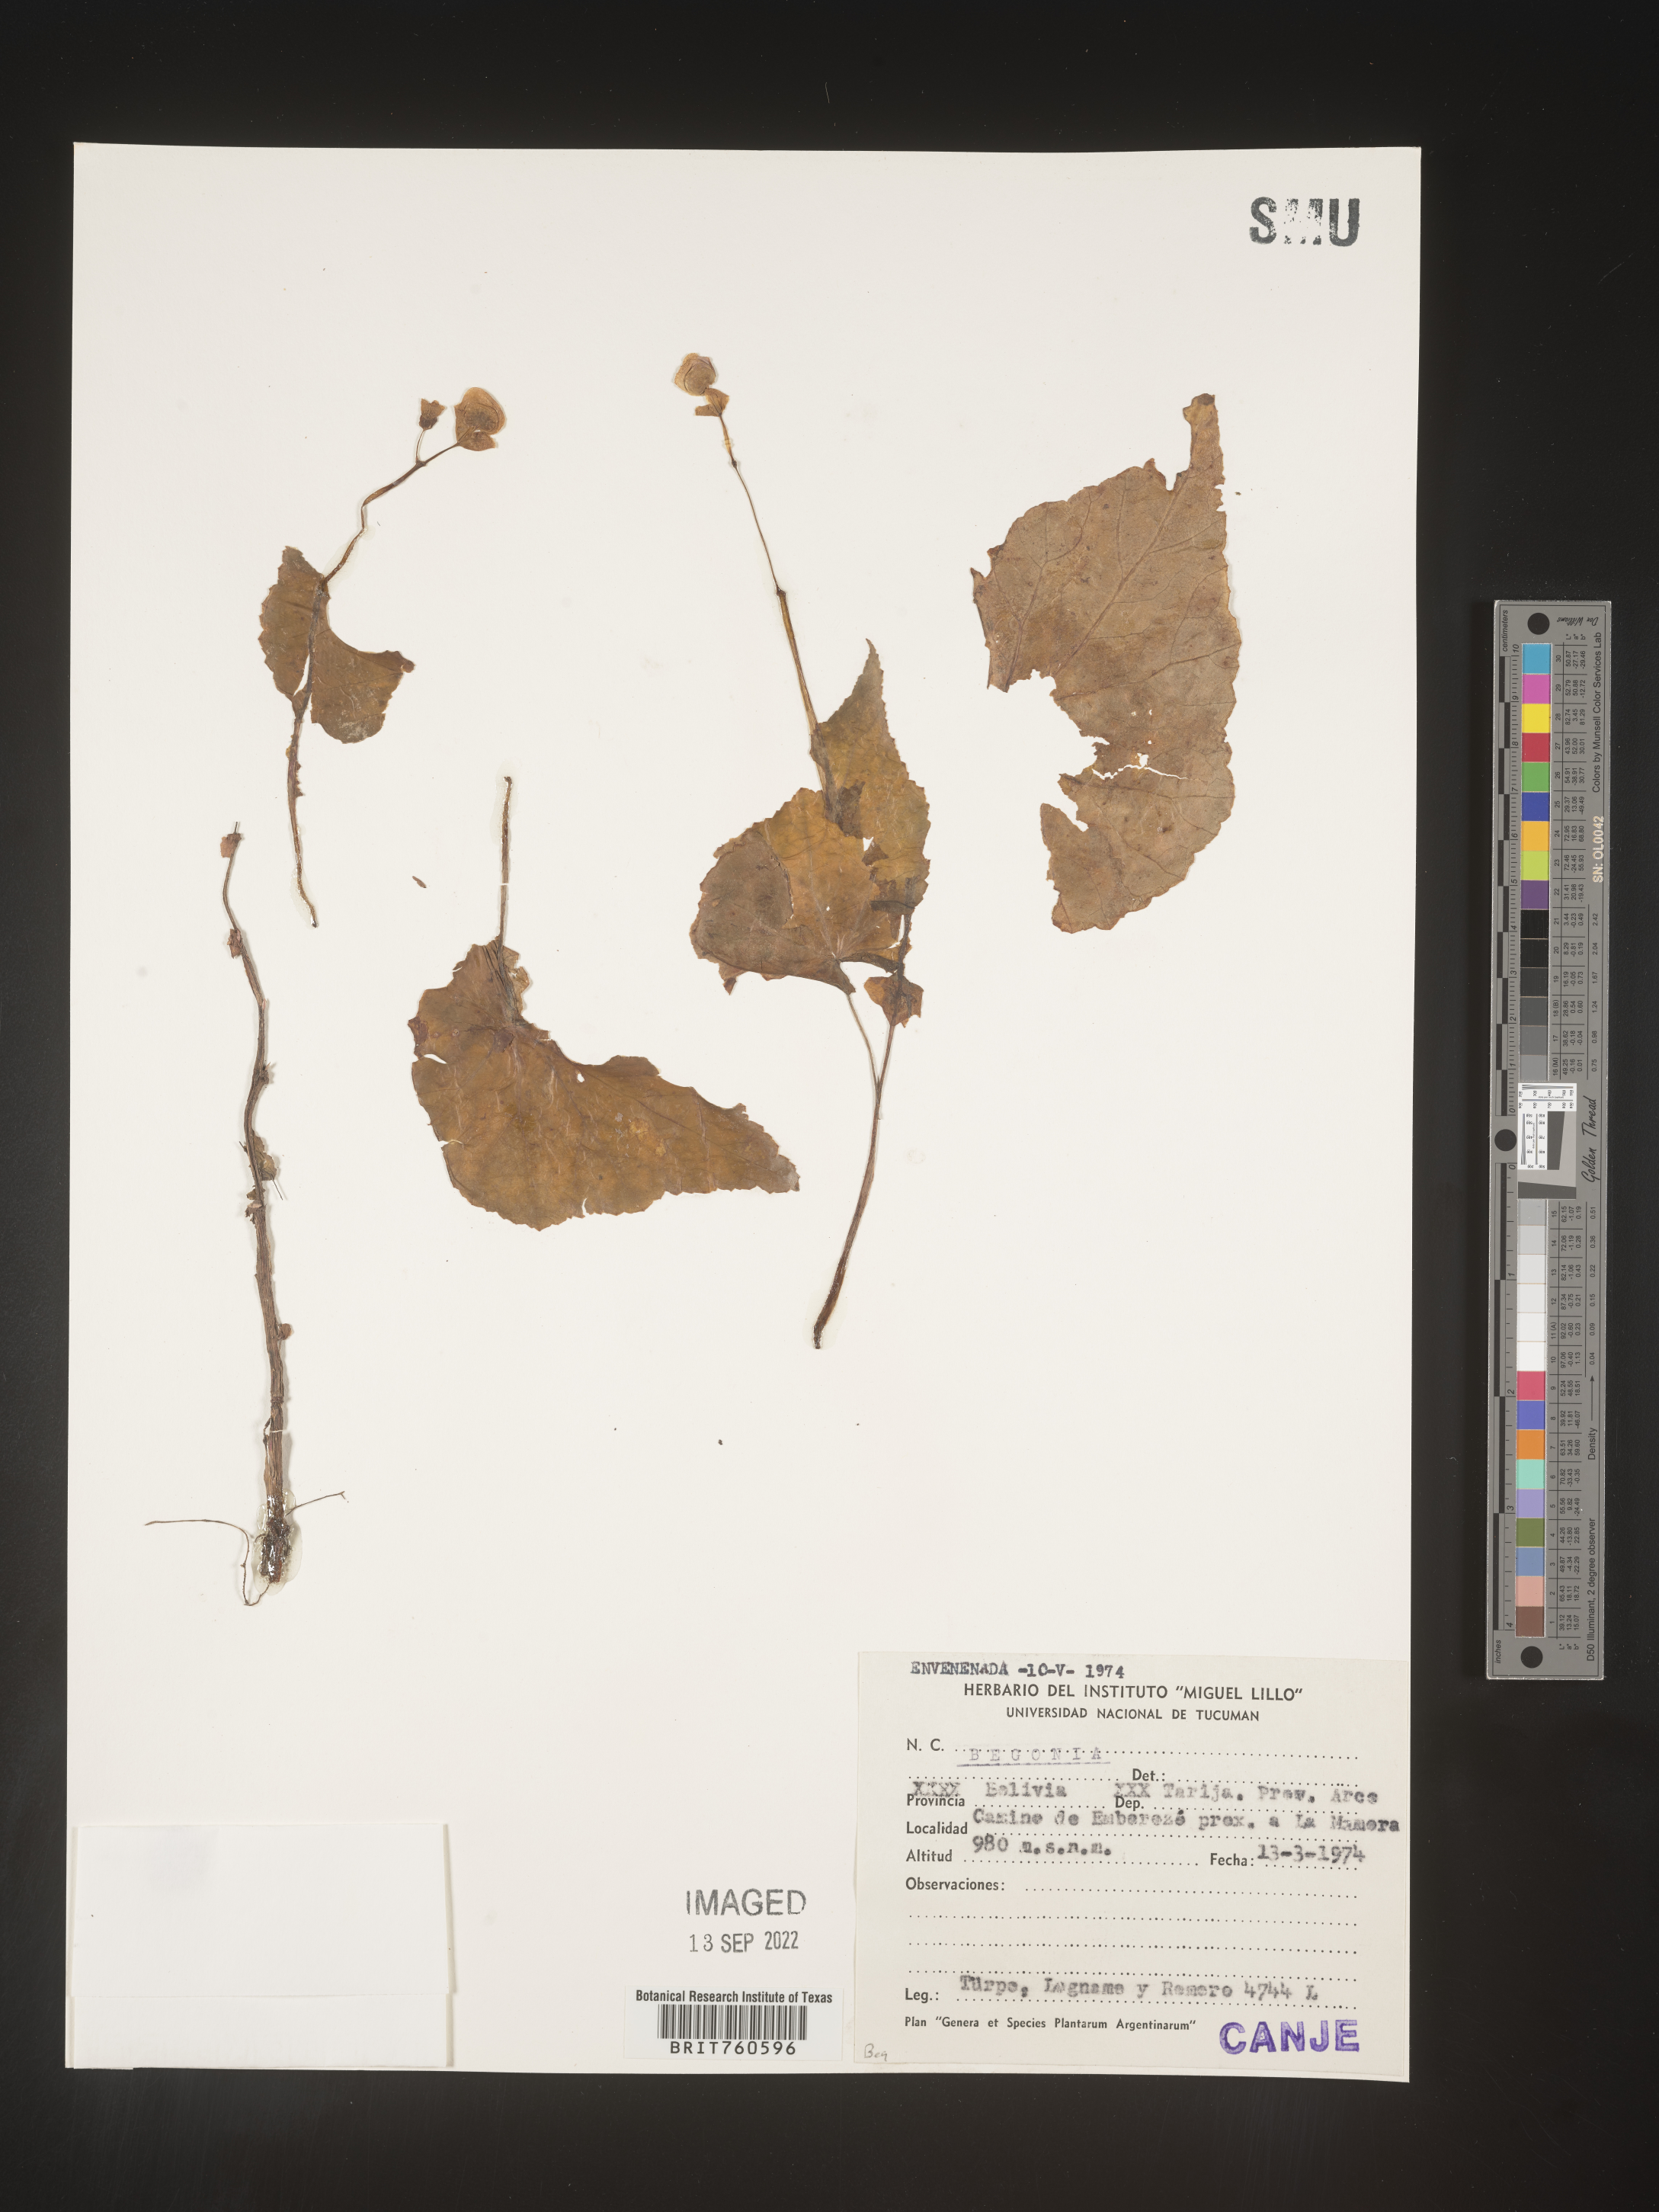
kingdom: Plantae
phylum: Tracheophyta
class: Magnoliopsida
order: Cucurbitales
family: Begoniaceae
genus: Begonia
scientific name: Begonia
